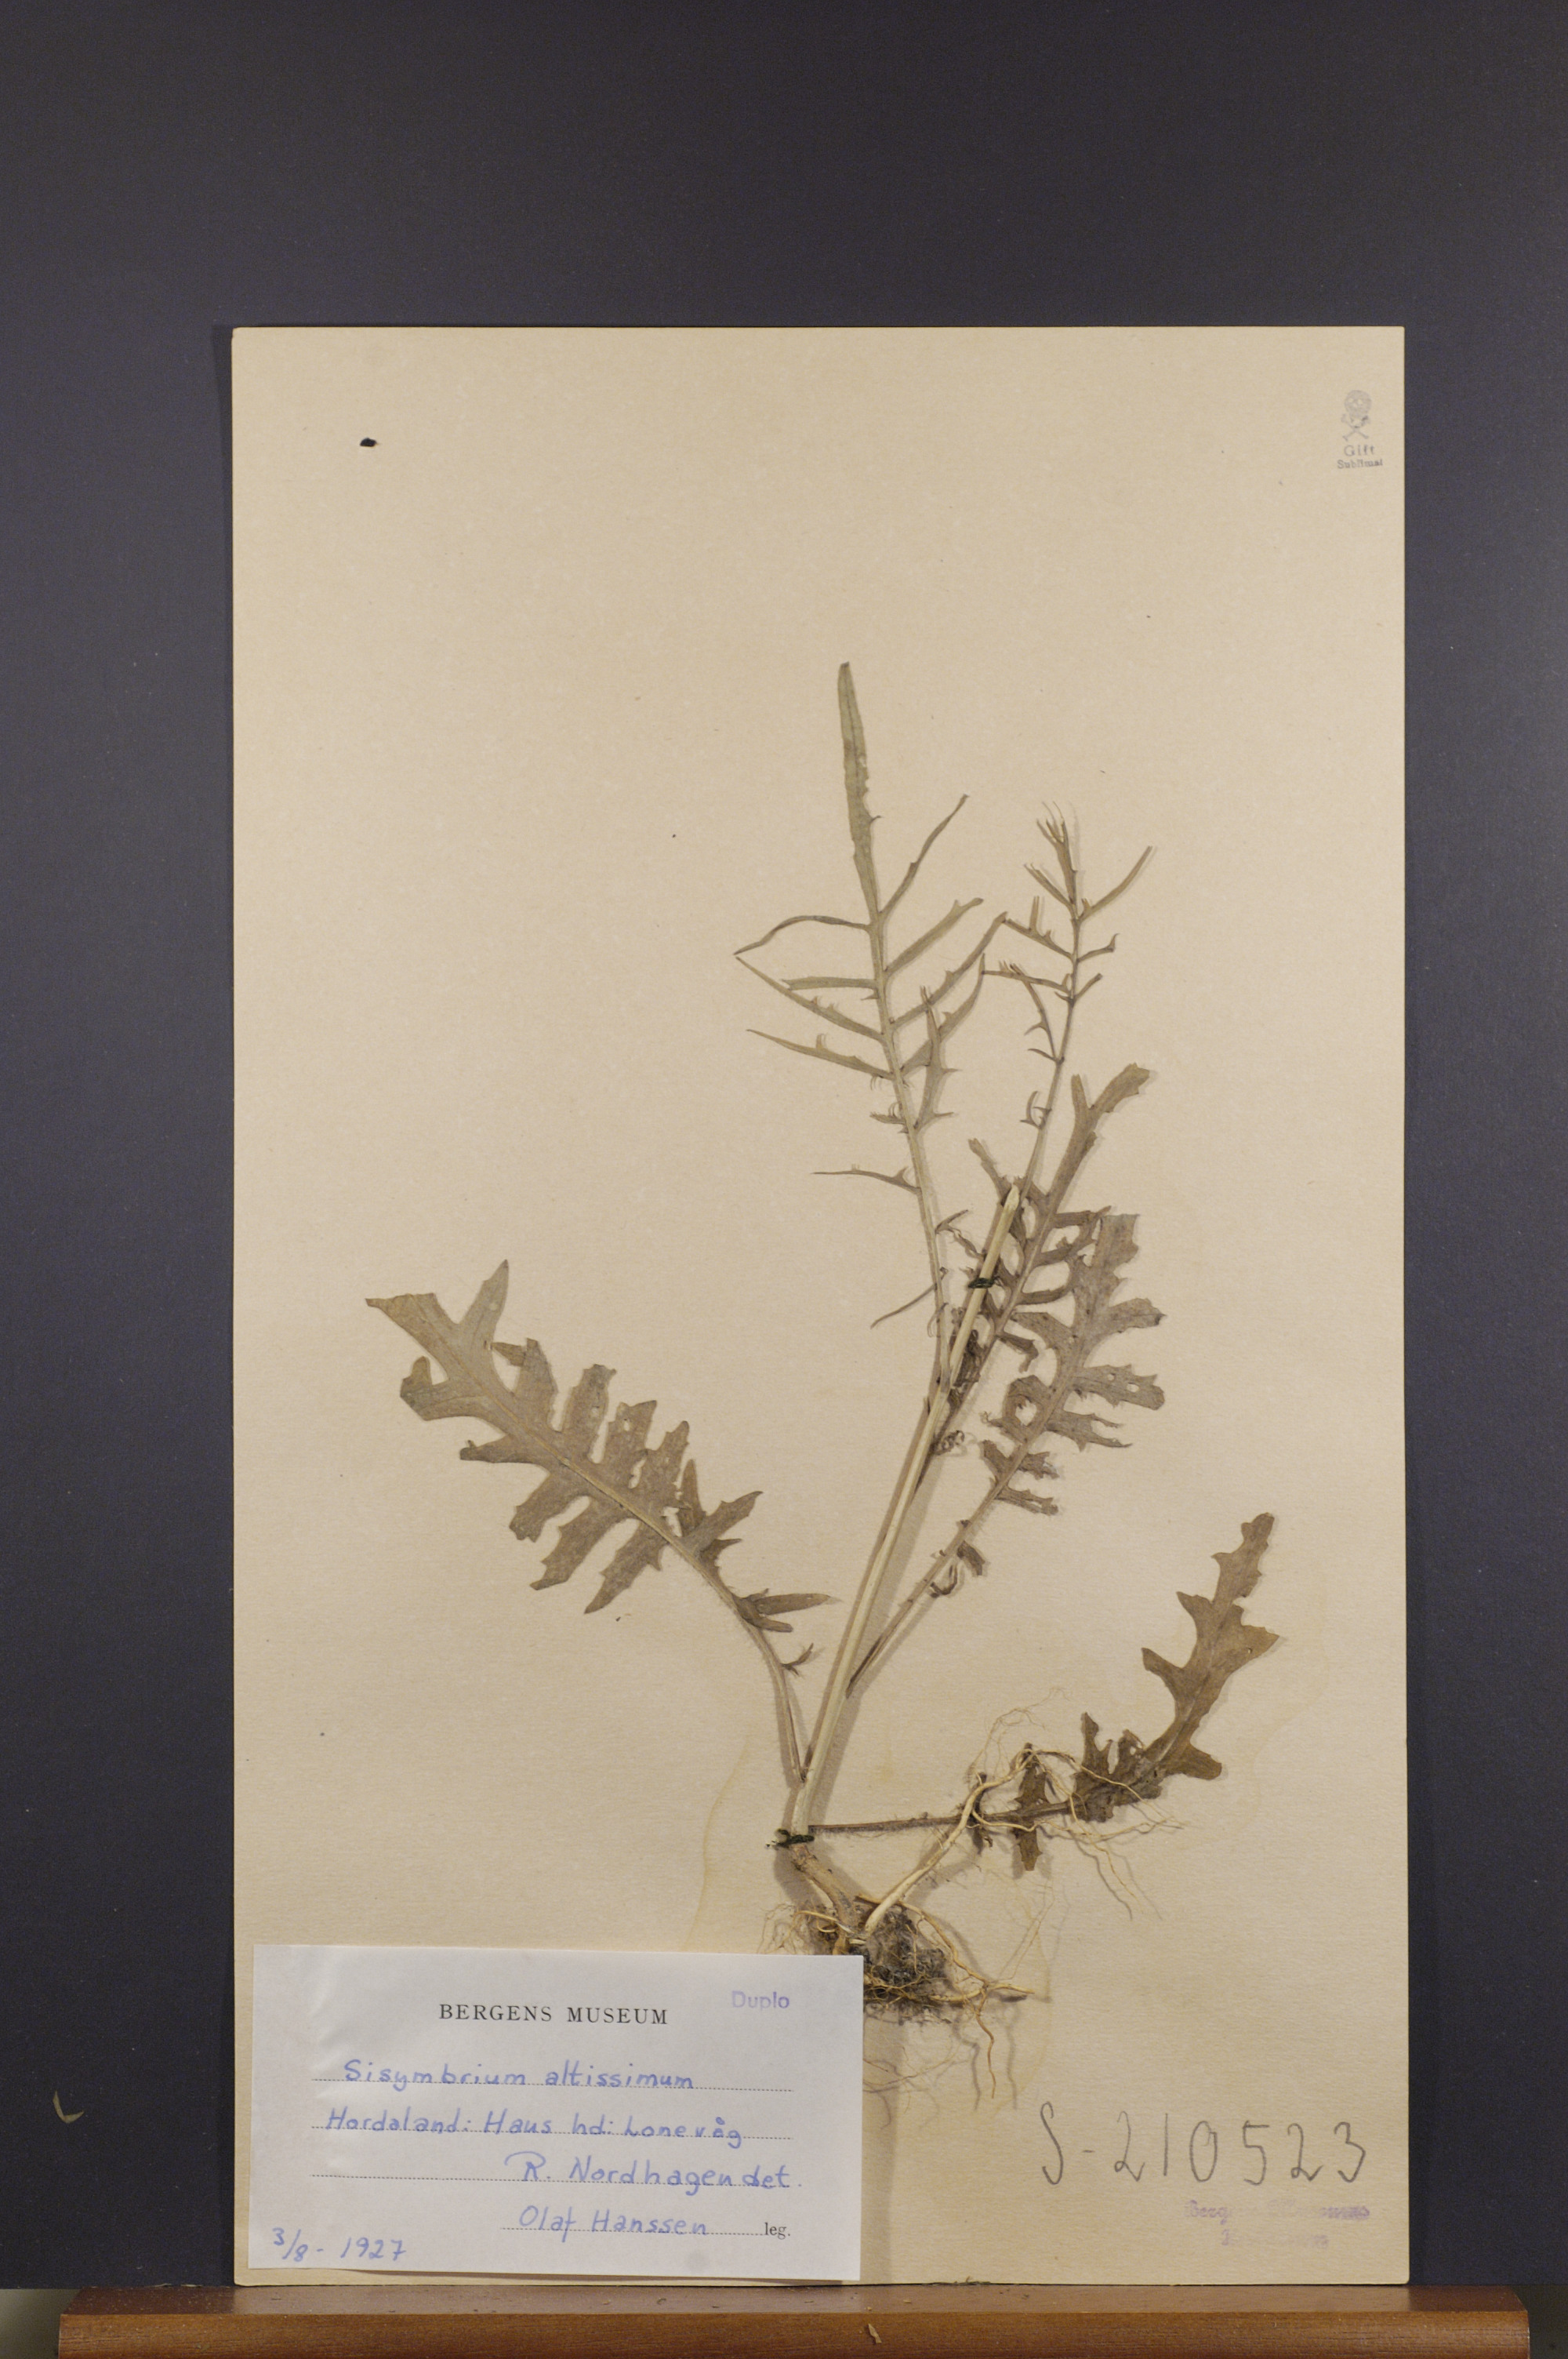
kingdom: Plantae
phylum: Tracheophyta
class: Magnoliopsida
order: Brassicales
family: Brassicaceae
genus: Sisymbrium
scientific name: Sisymbrium altissimum
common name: Tall rocket
